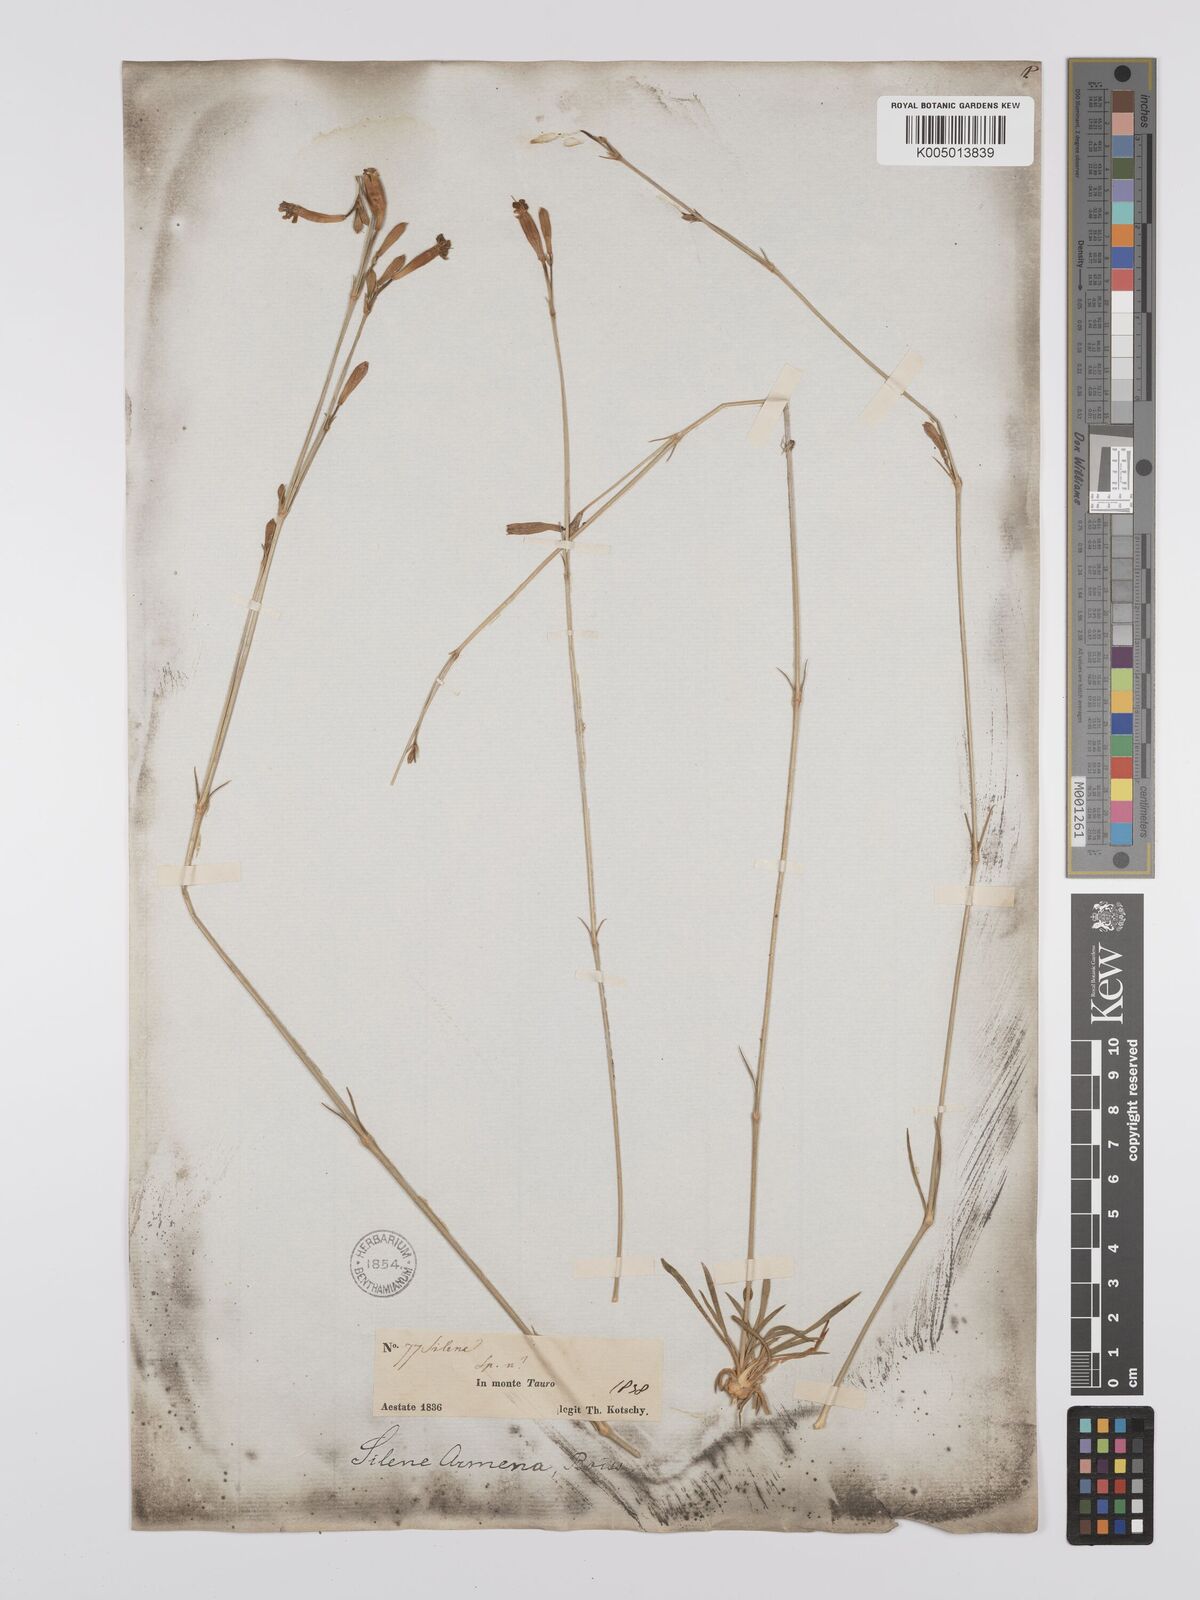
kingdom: Plantae
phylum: Tracheophyta
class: Magnoliopsida
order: Caryophyllales
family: Caryophyllaceae
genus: Silene
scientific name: Silene
